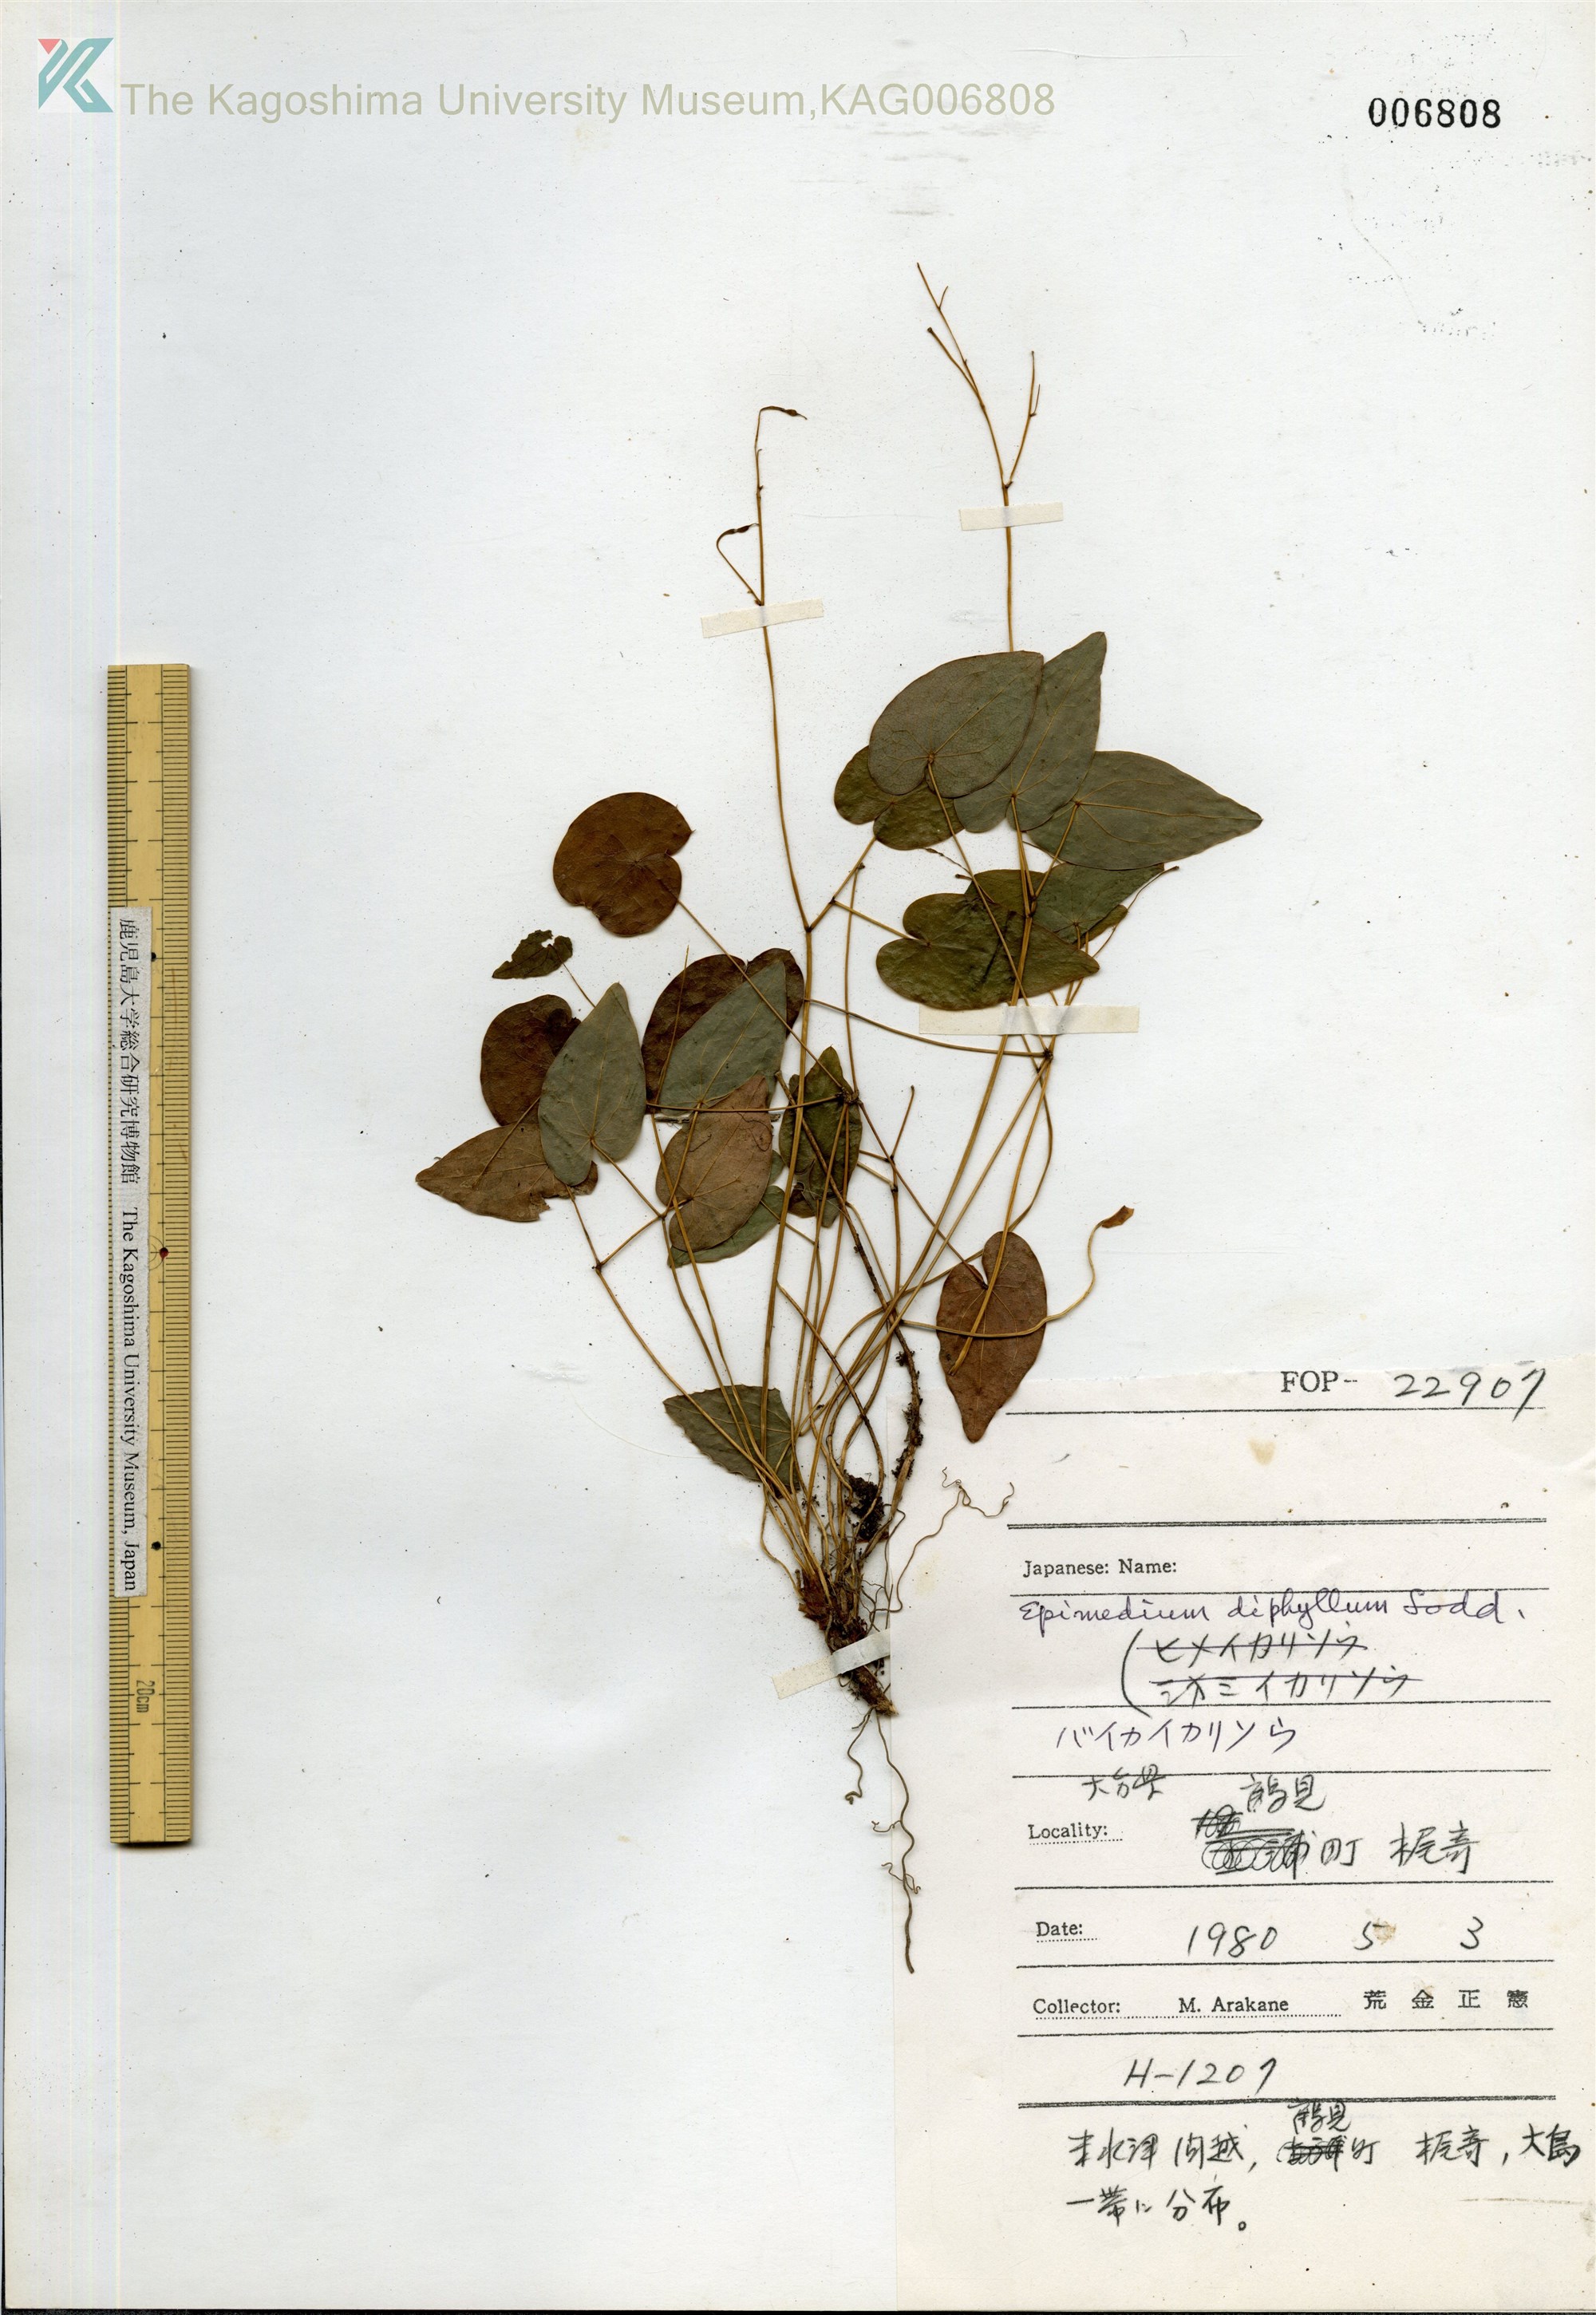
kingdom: Plantae
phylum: Tracheophyta
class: Magnoliopsida
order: Ranunculales
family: Berberidaceae
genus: Epimedium
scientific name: Epimedium diphyllum
